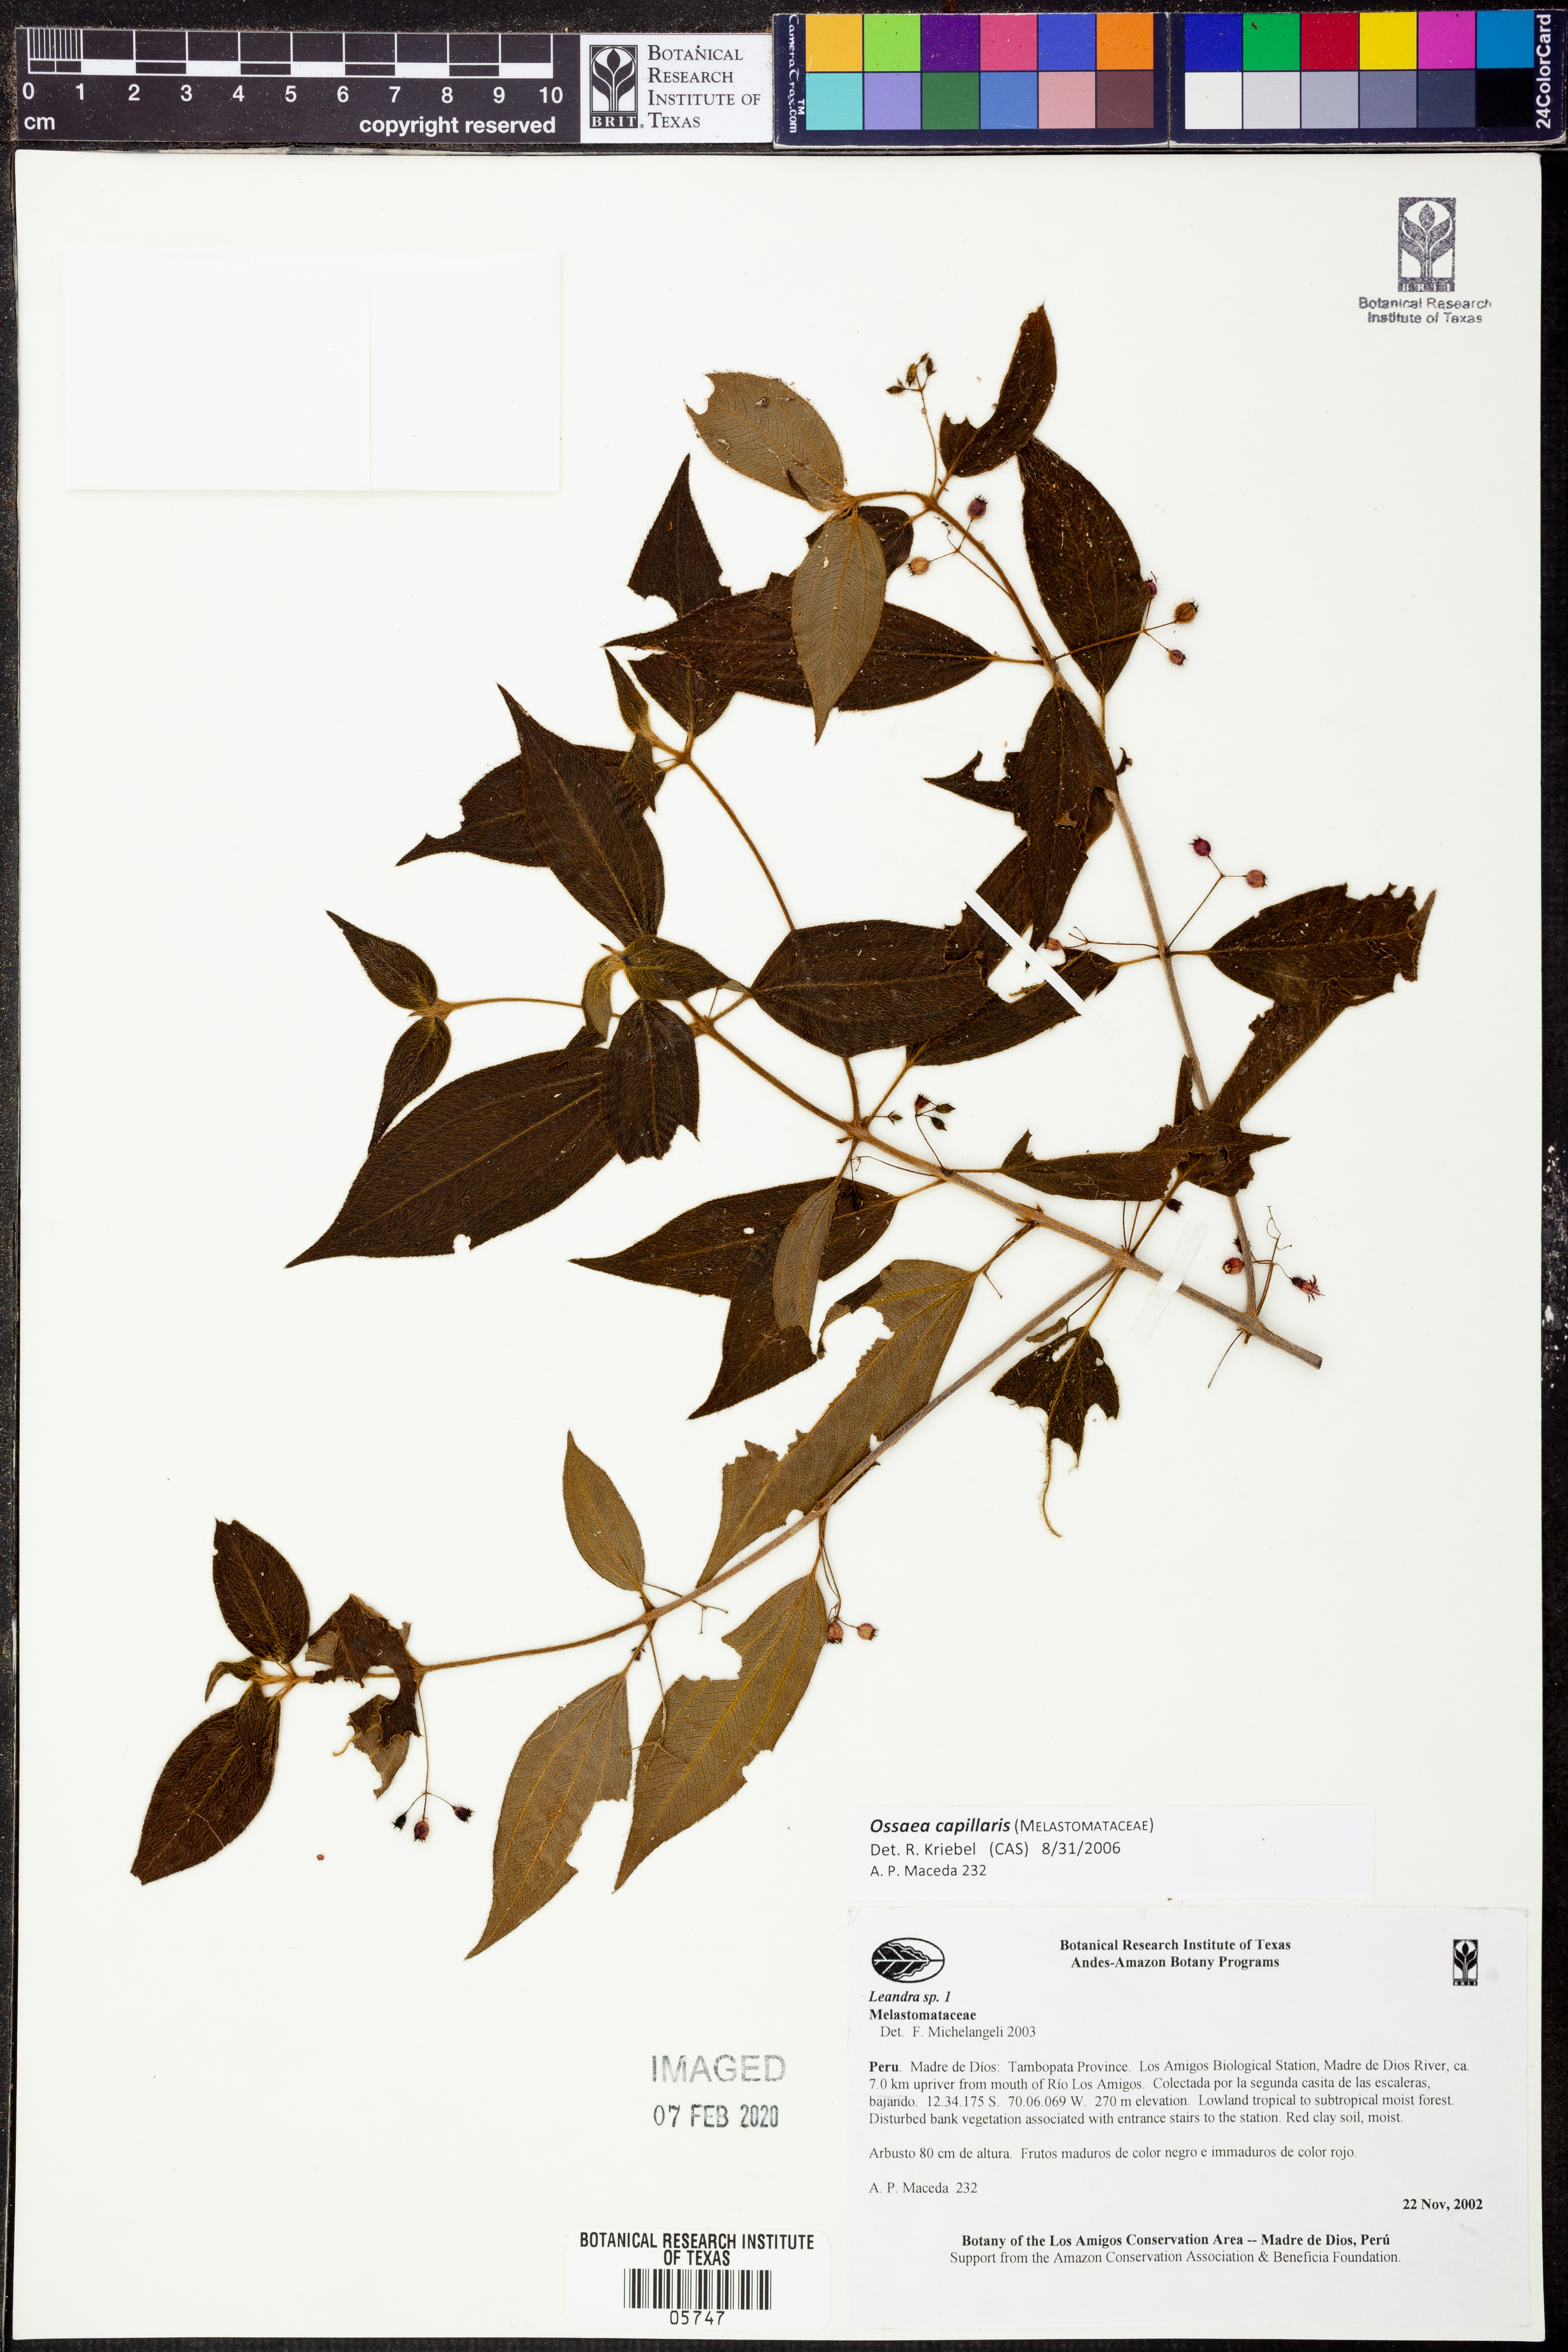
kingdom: Plantae
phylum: Tracheophyta
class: Magnoliopsida
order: Myrtales
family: Melastomataceae
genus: Miconia
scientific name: Miconia leptopus
